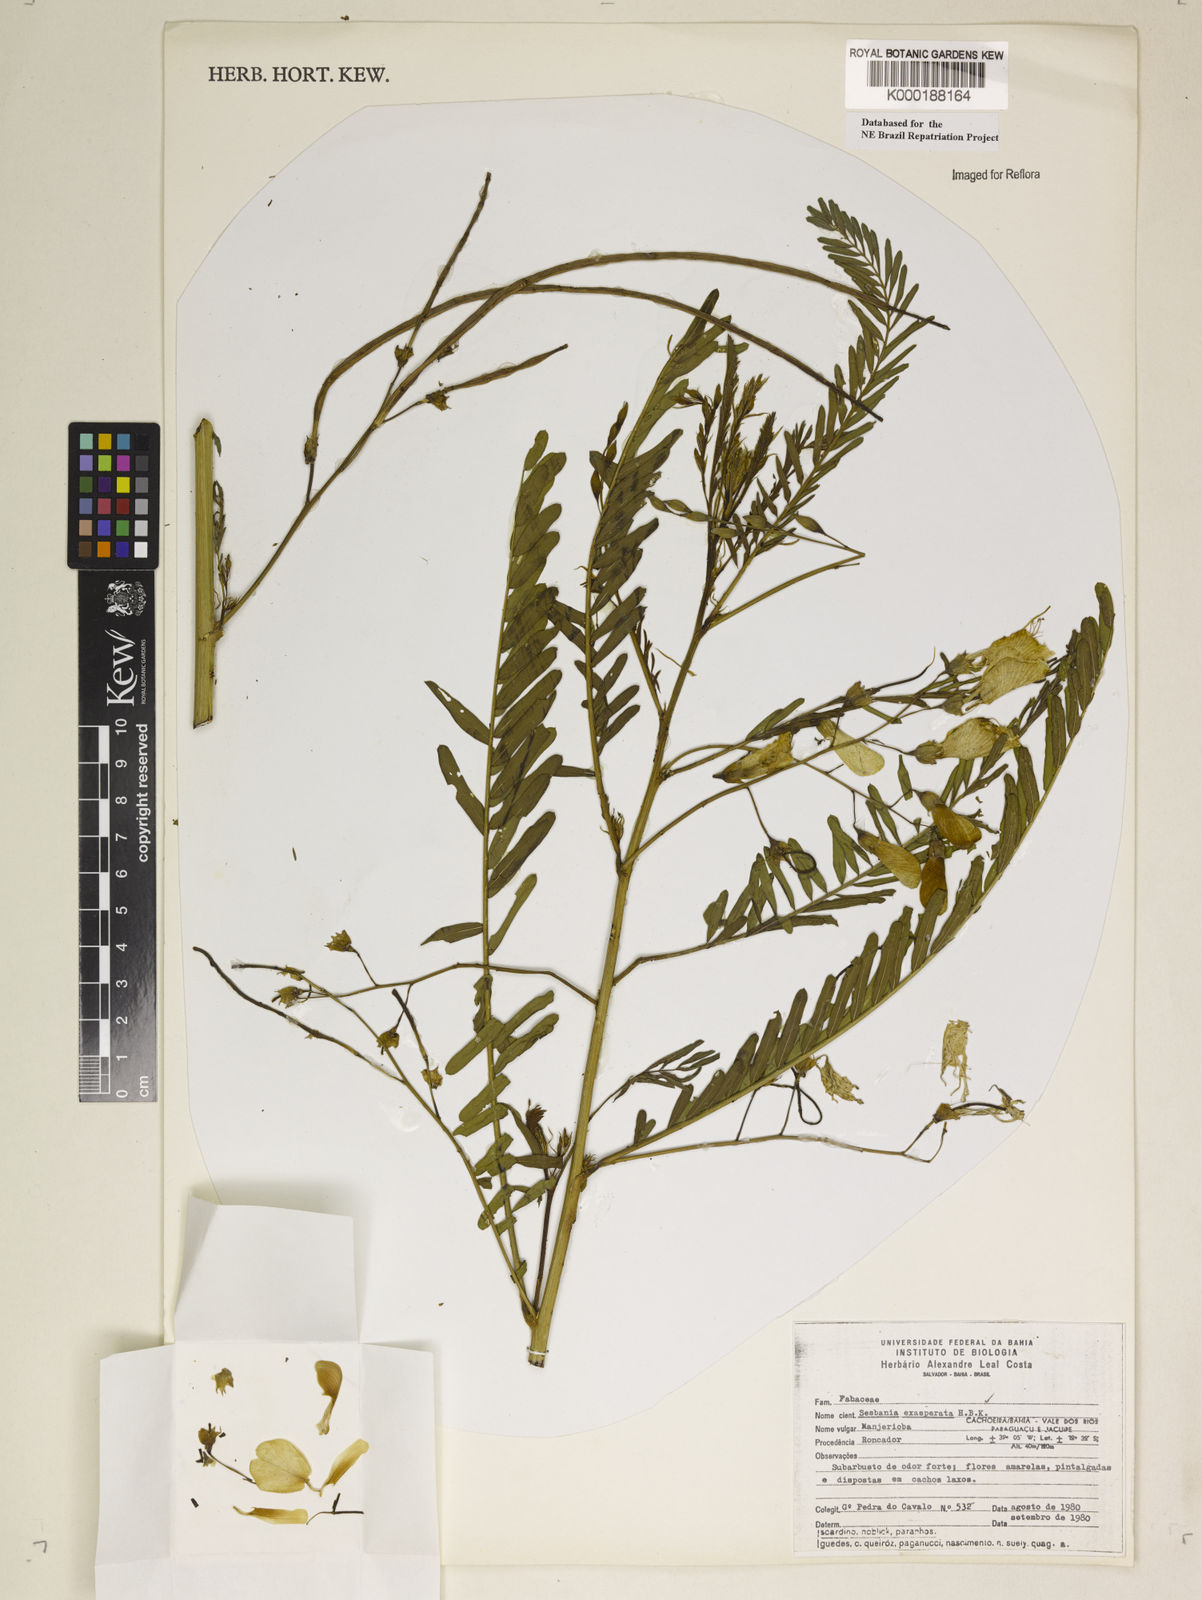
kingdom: Plantae
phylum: Tracheophyta
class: Magnoliopsida
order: Fabales
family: Fabaceae
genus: Sesbania
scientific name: Sesbania exasperata
